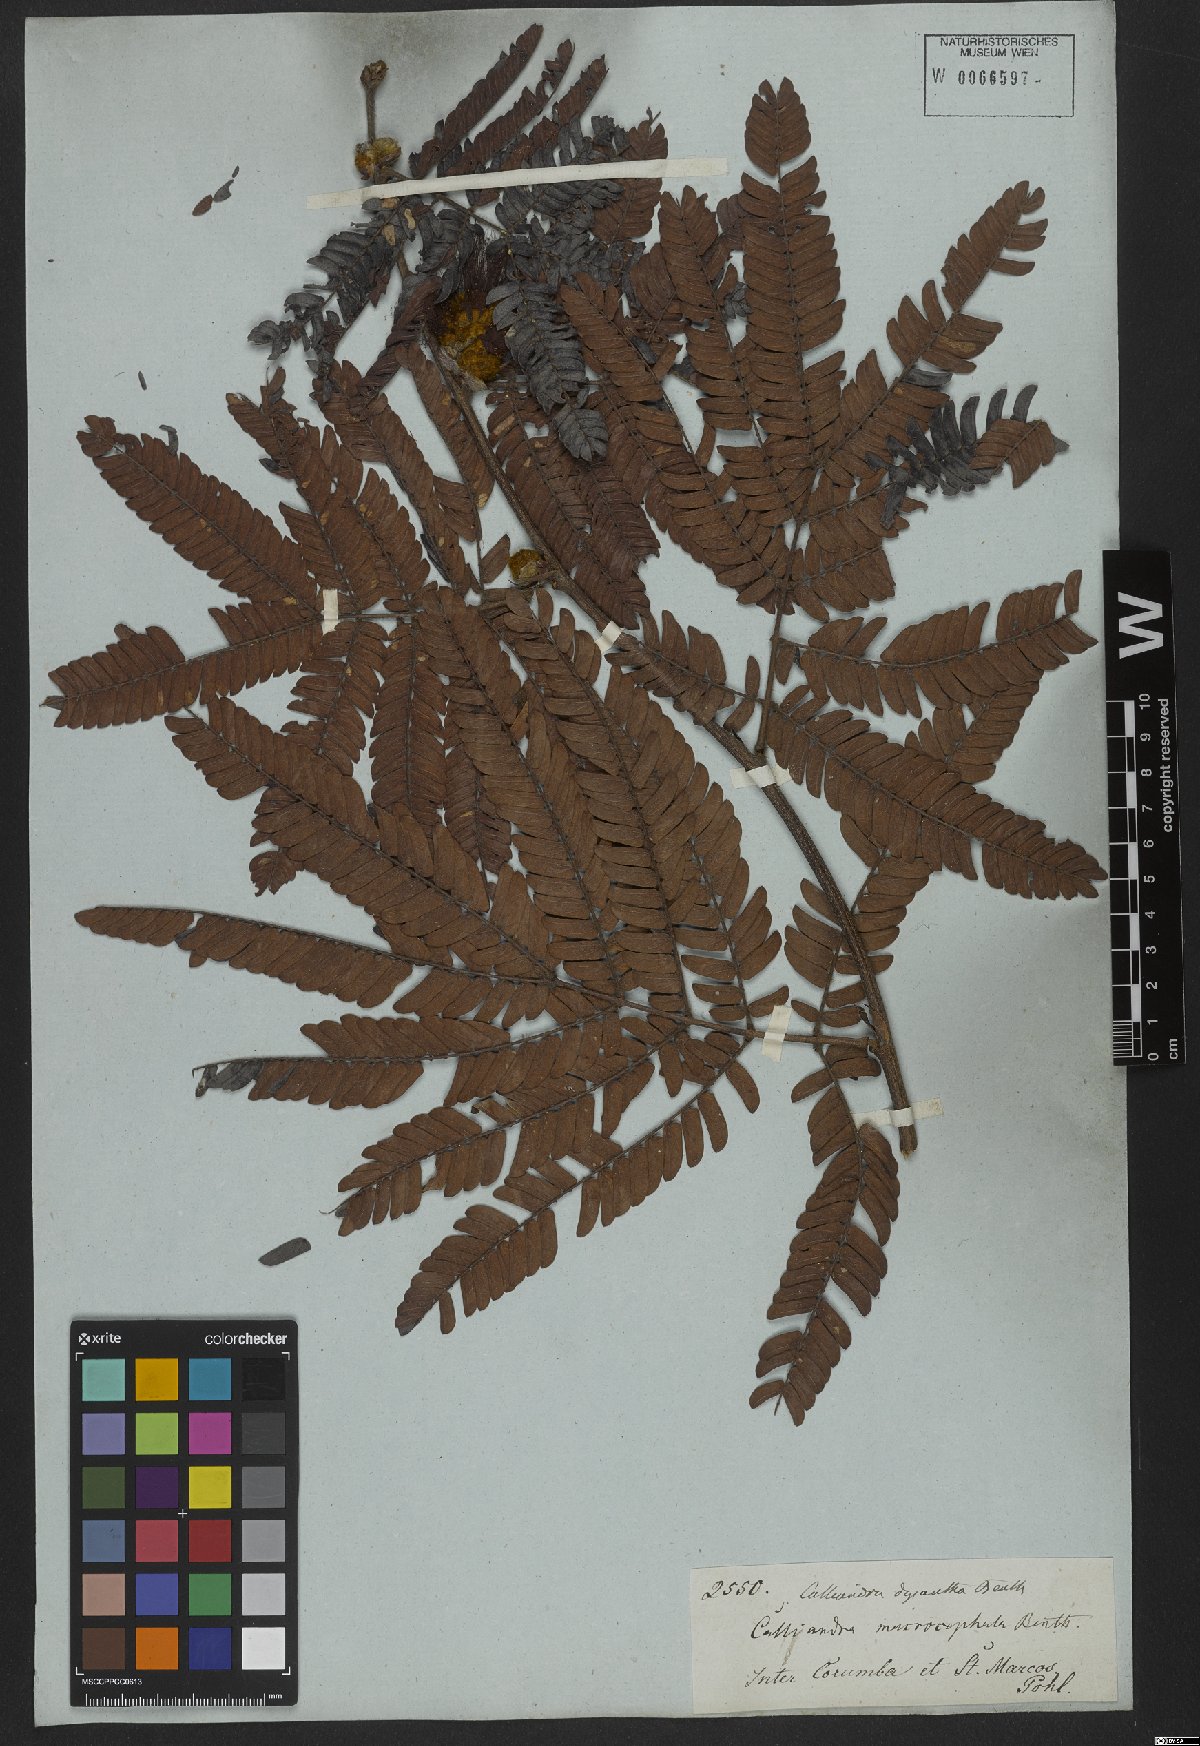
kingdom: Plantae
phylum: Tracheophyta
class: Magnoliopsida
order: Fabales
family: Fabaceae
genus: Calliandra
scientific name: Calliandra dysantha
